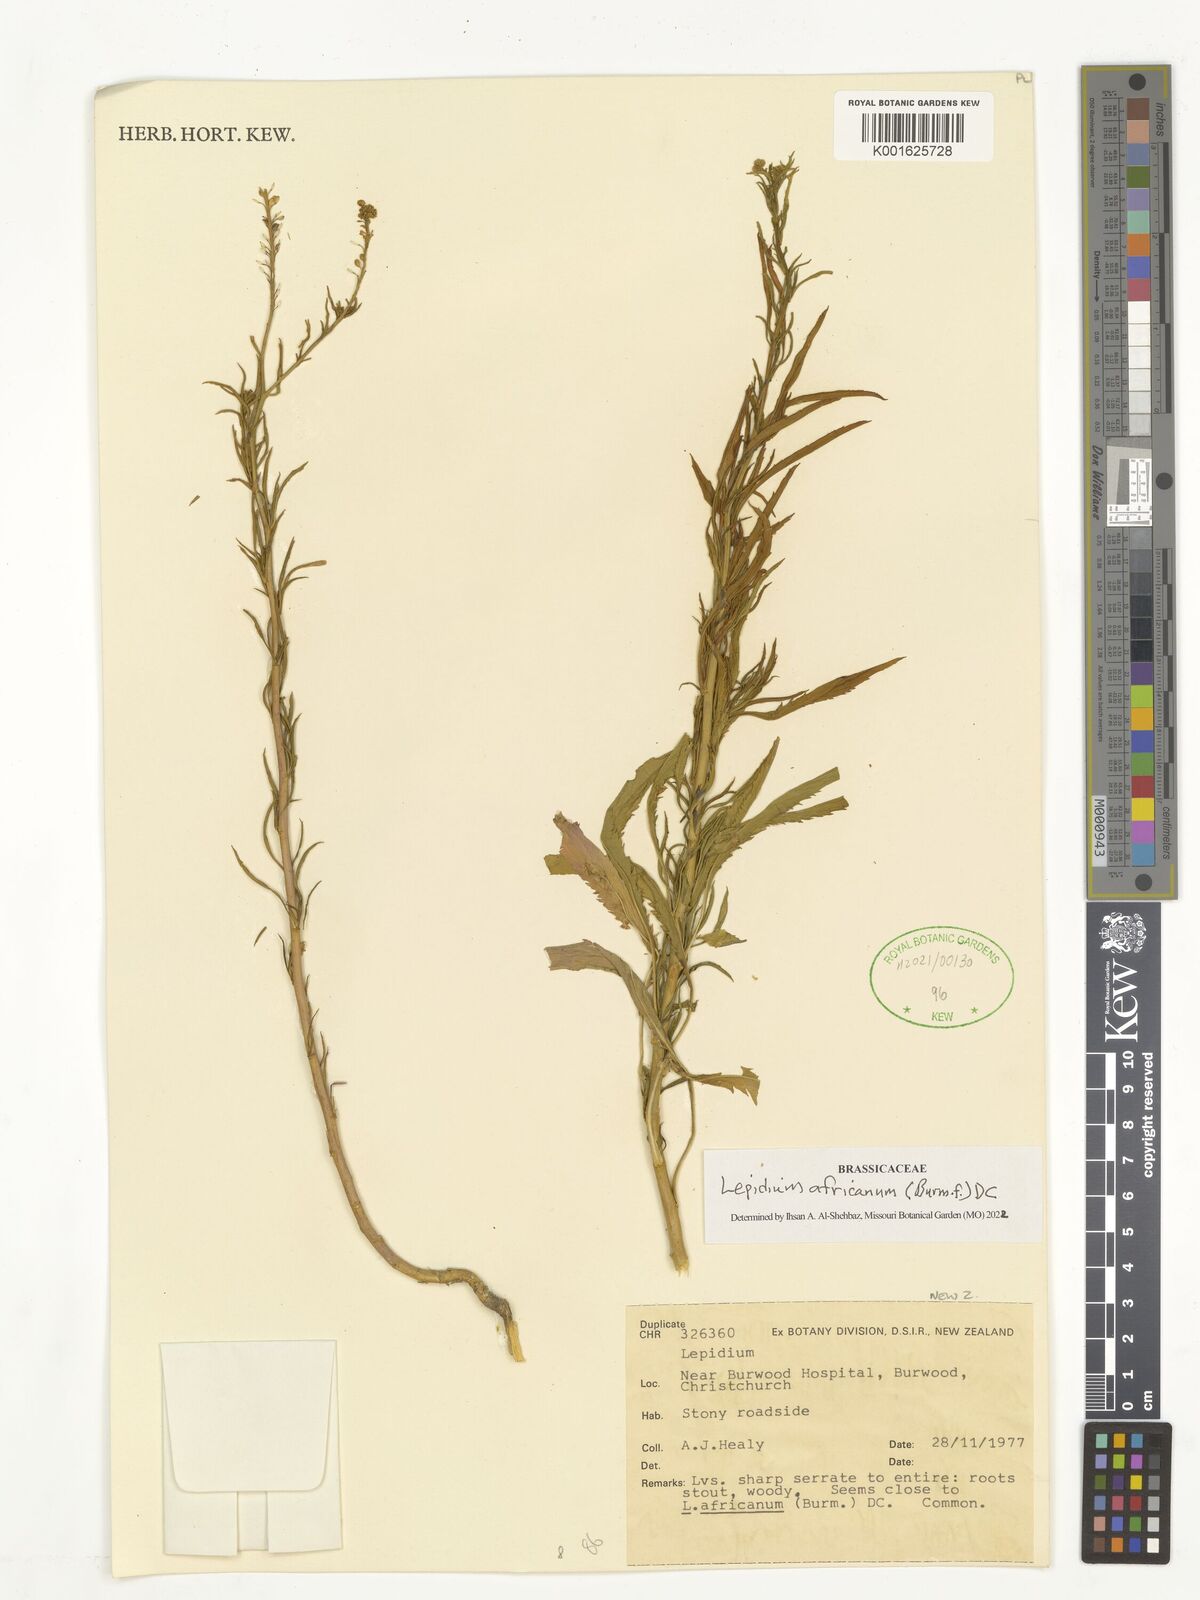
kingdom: Plantae
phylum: Tracheophyta
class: Magnoliopsida
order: Brassicales
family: Brassicaceae
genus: Lepidium
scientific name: Lepidium africanum
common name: African pepperwort
